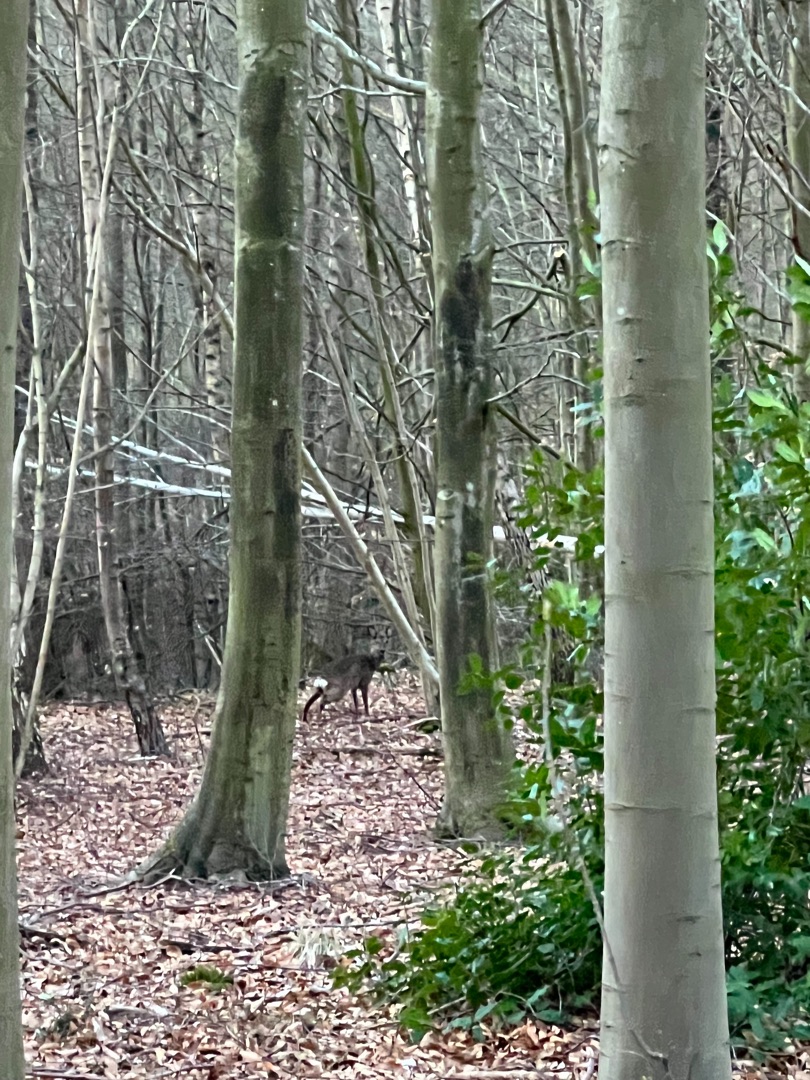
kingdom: Animalia
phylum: Chordata
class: Mammalia
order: Artiodactyla
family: Cervidae
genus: Capreolus
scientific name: Capreolus capreolus
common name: Rådyr
